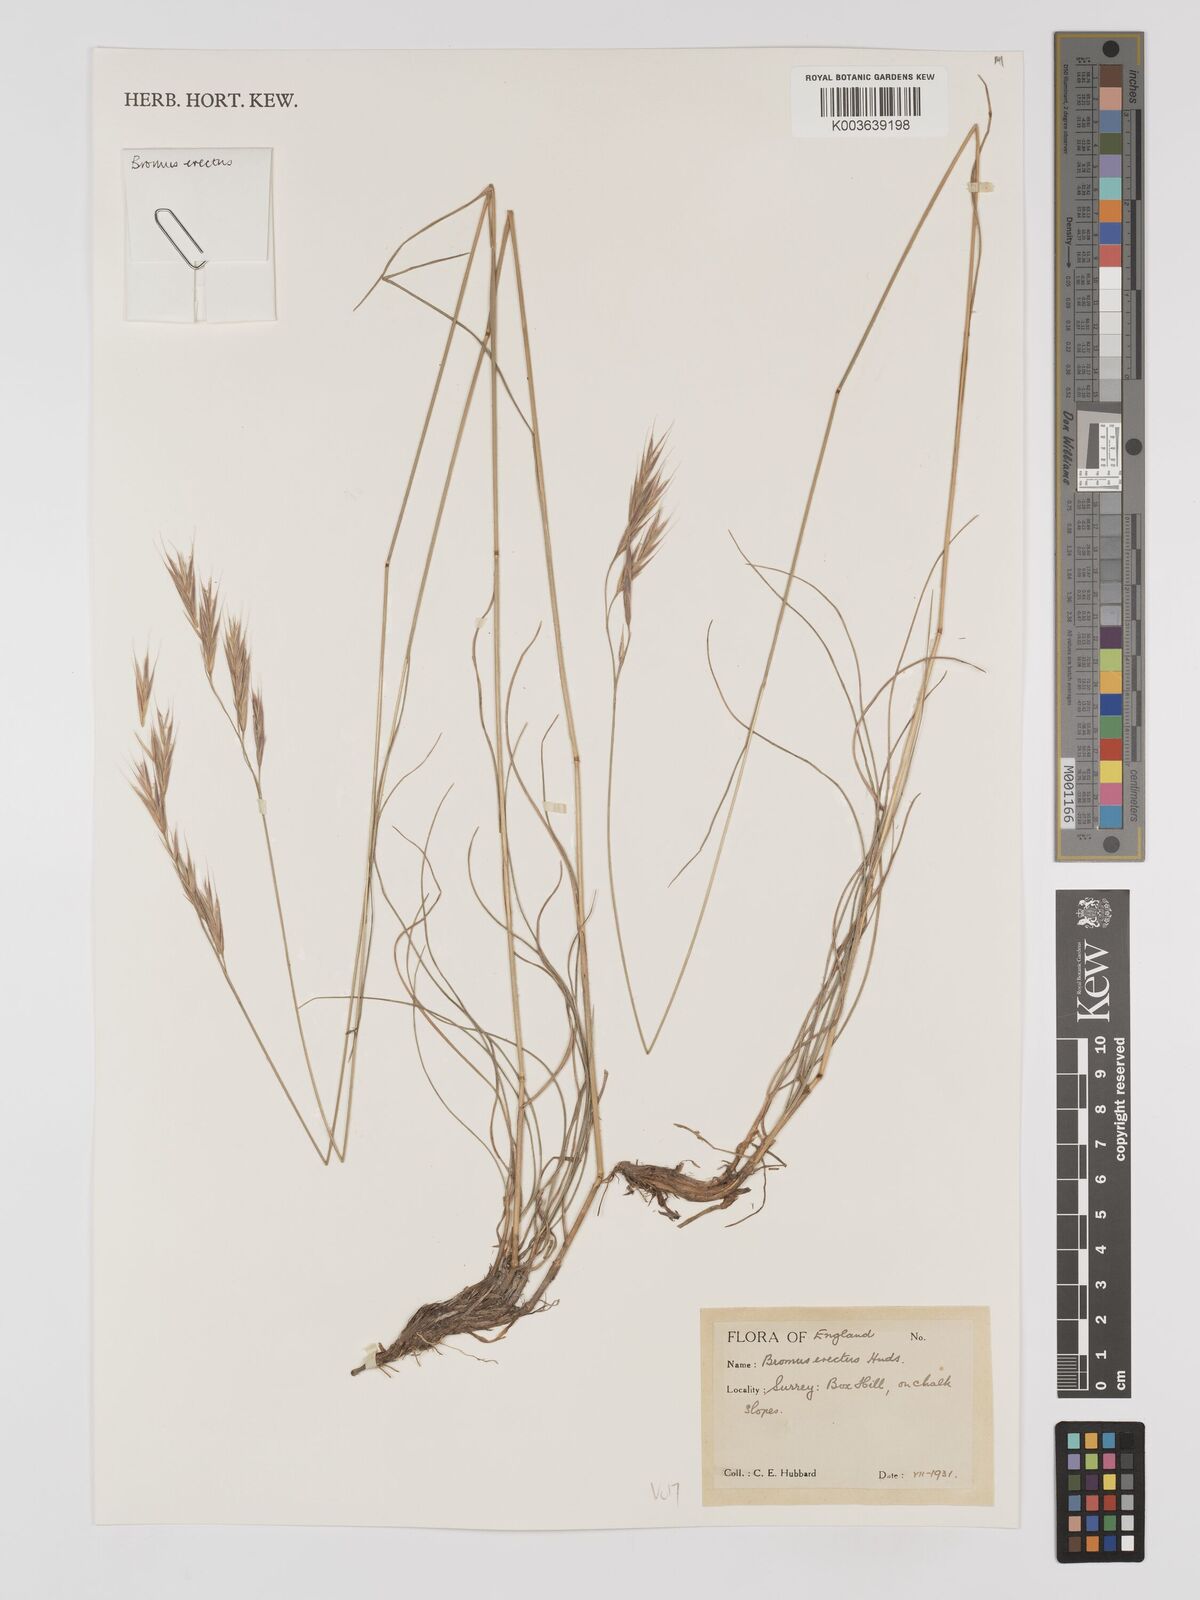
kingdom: Plantae
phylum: Tracheophyta
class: Liliopsida
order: Poales
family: Poaceae
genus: Bromus
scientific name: Bromus erectus
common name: Erect brome
